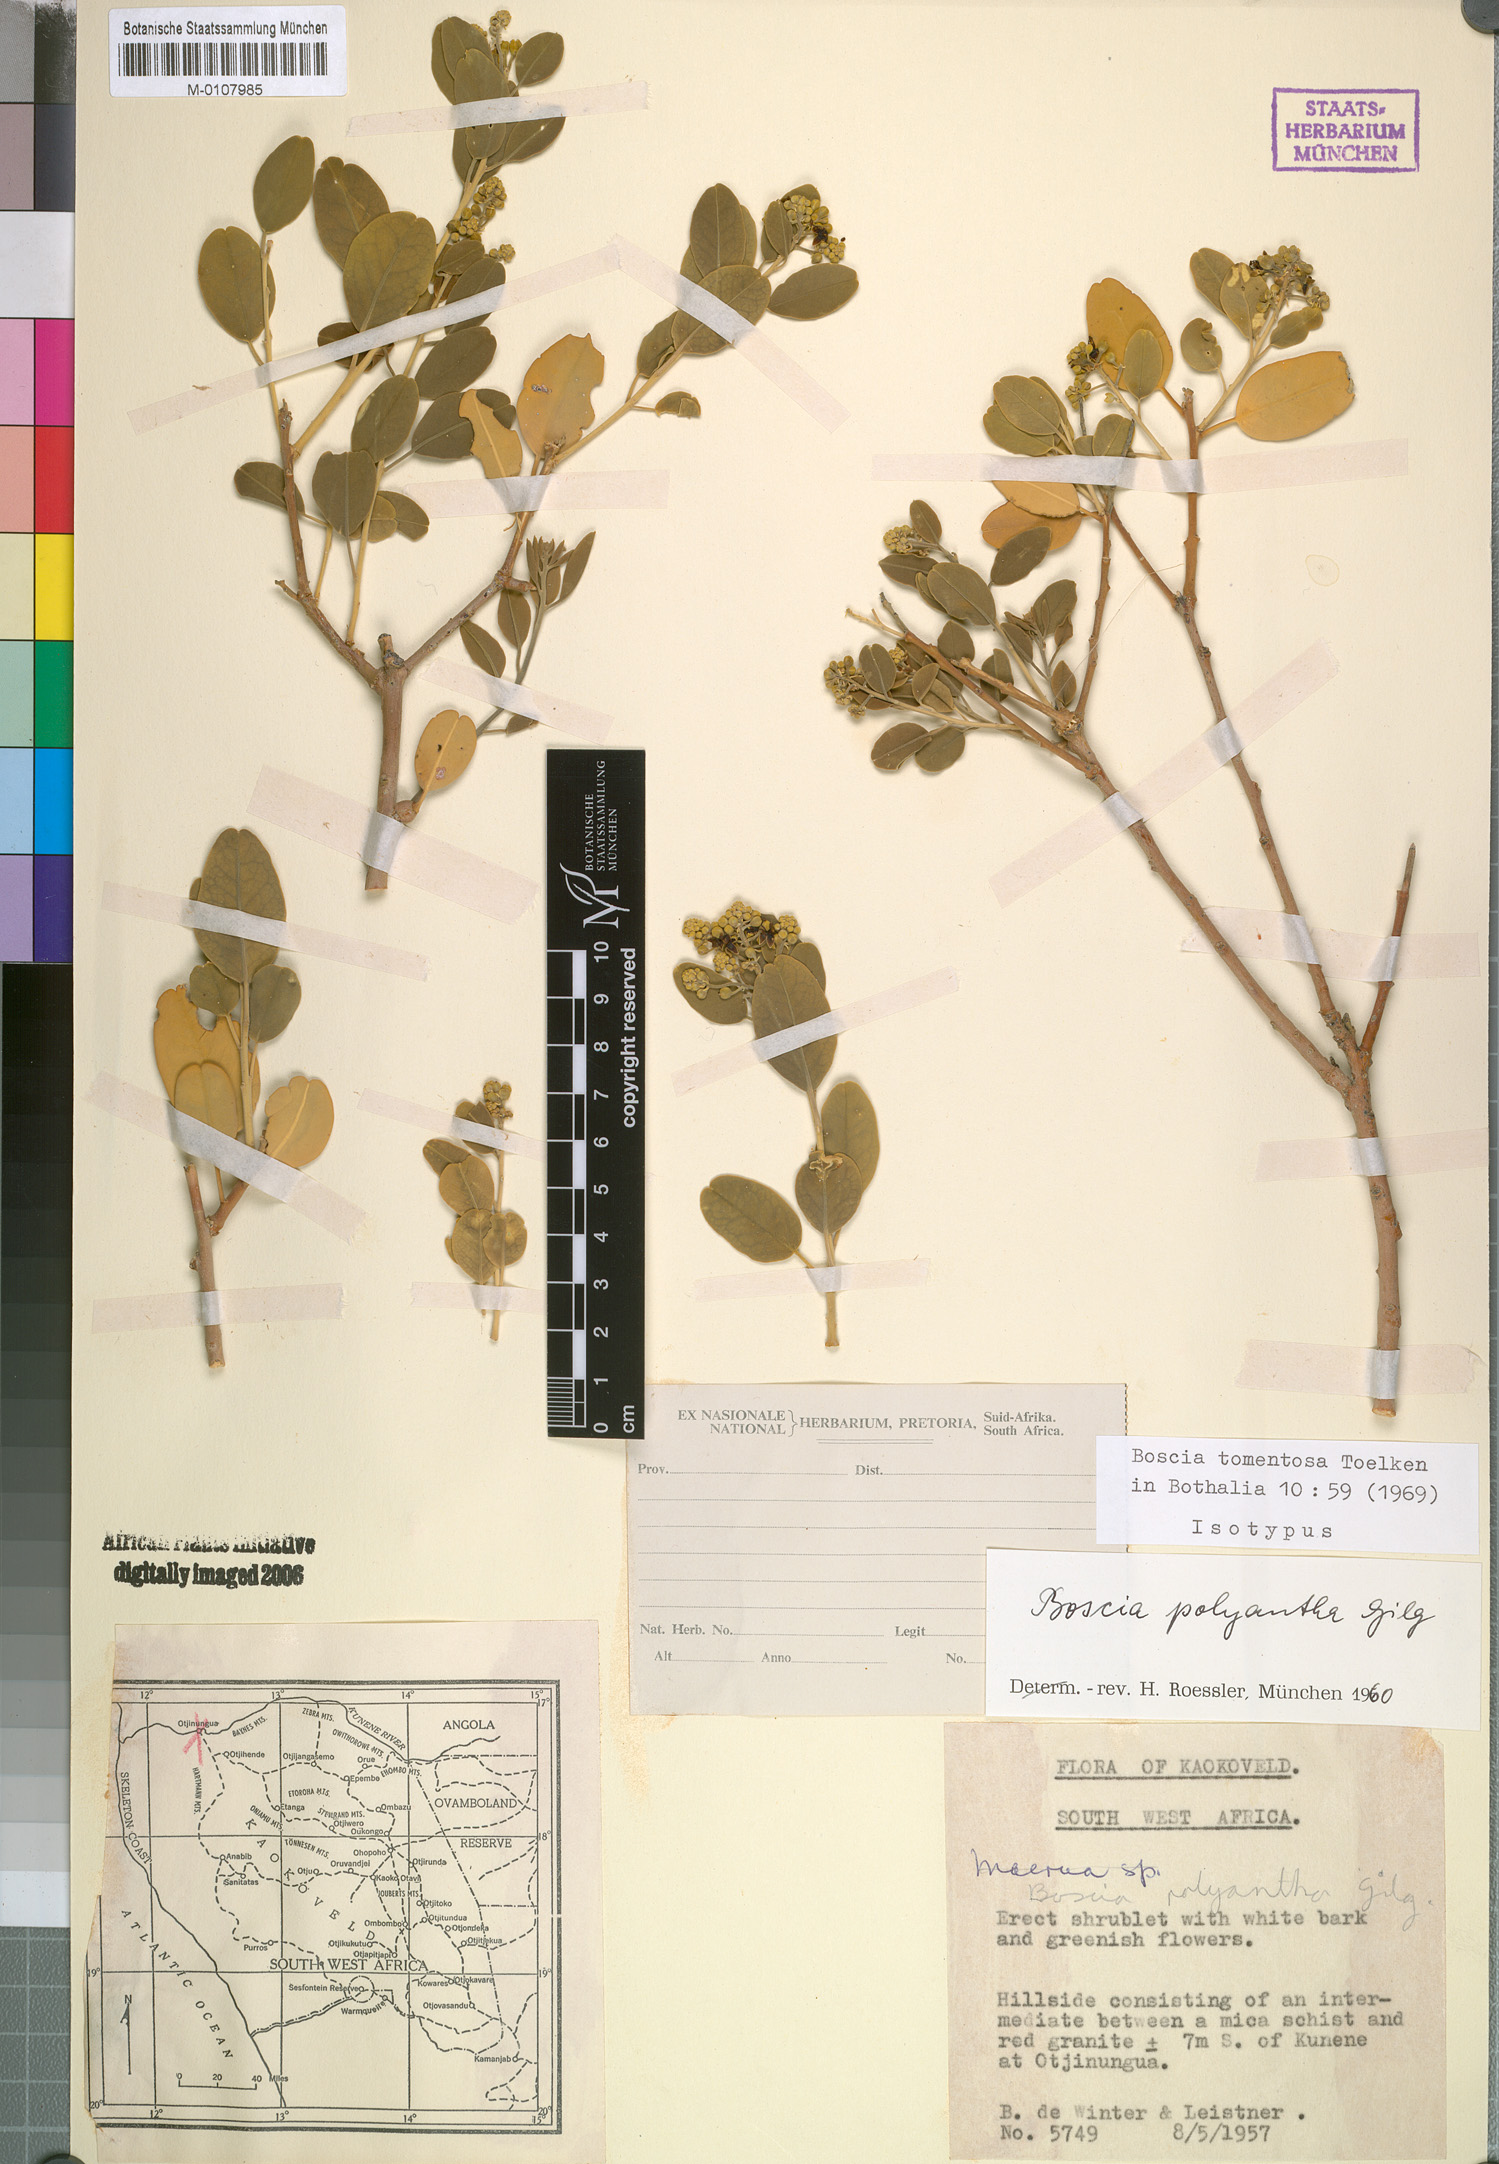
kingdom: Plantae
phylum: Tracheophyta
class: Magnoliopsida
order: Brassicales
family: Capparaceae
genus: Boscia
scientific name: Boscia tomentosa
